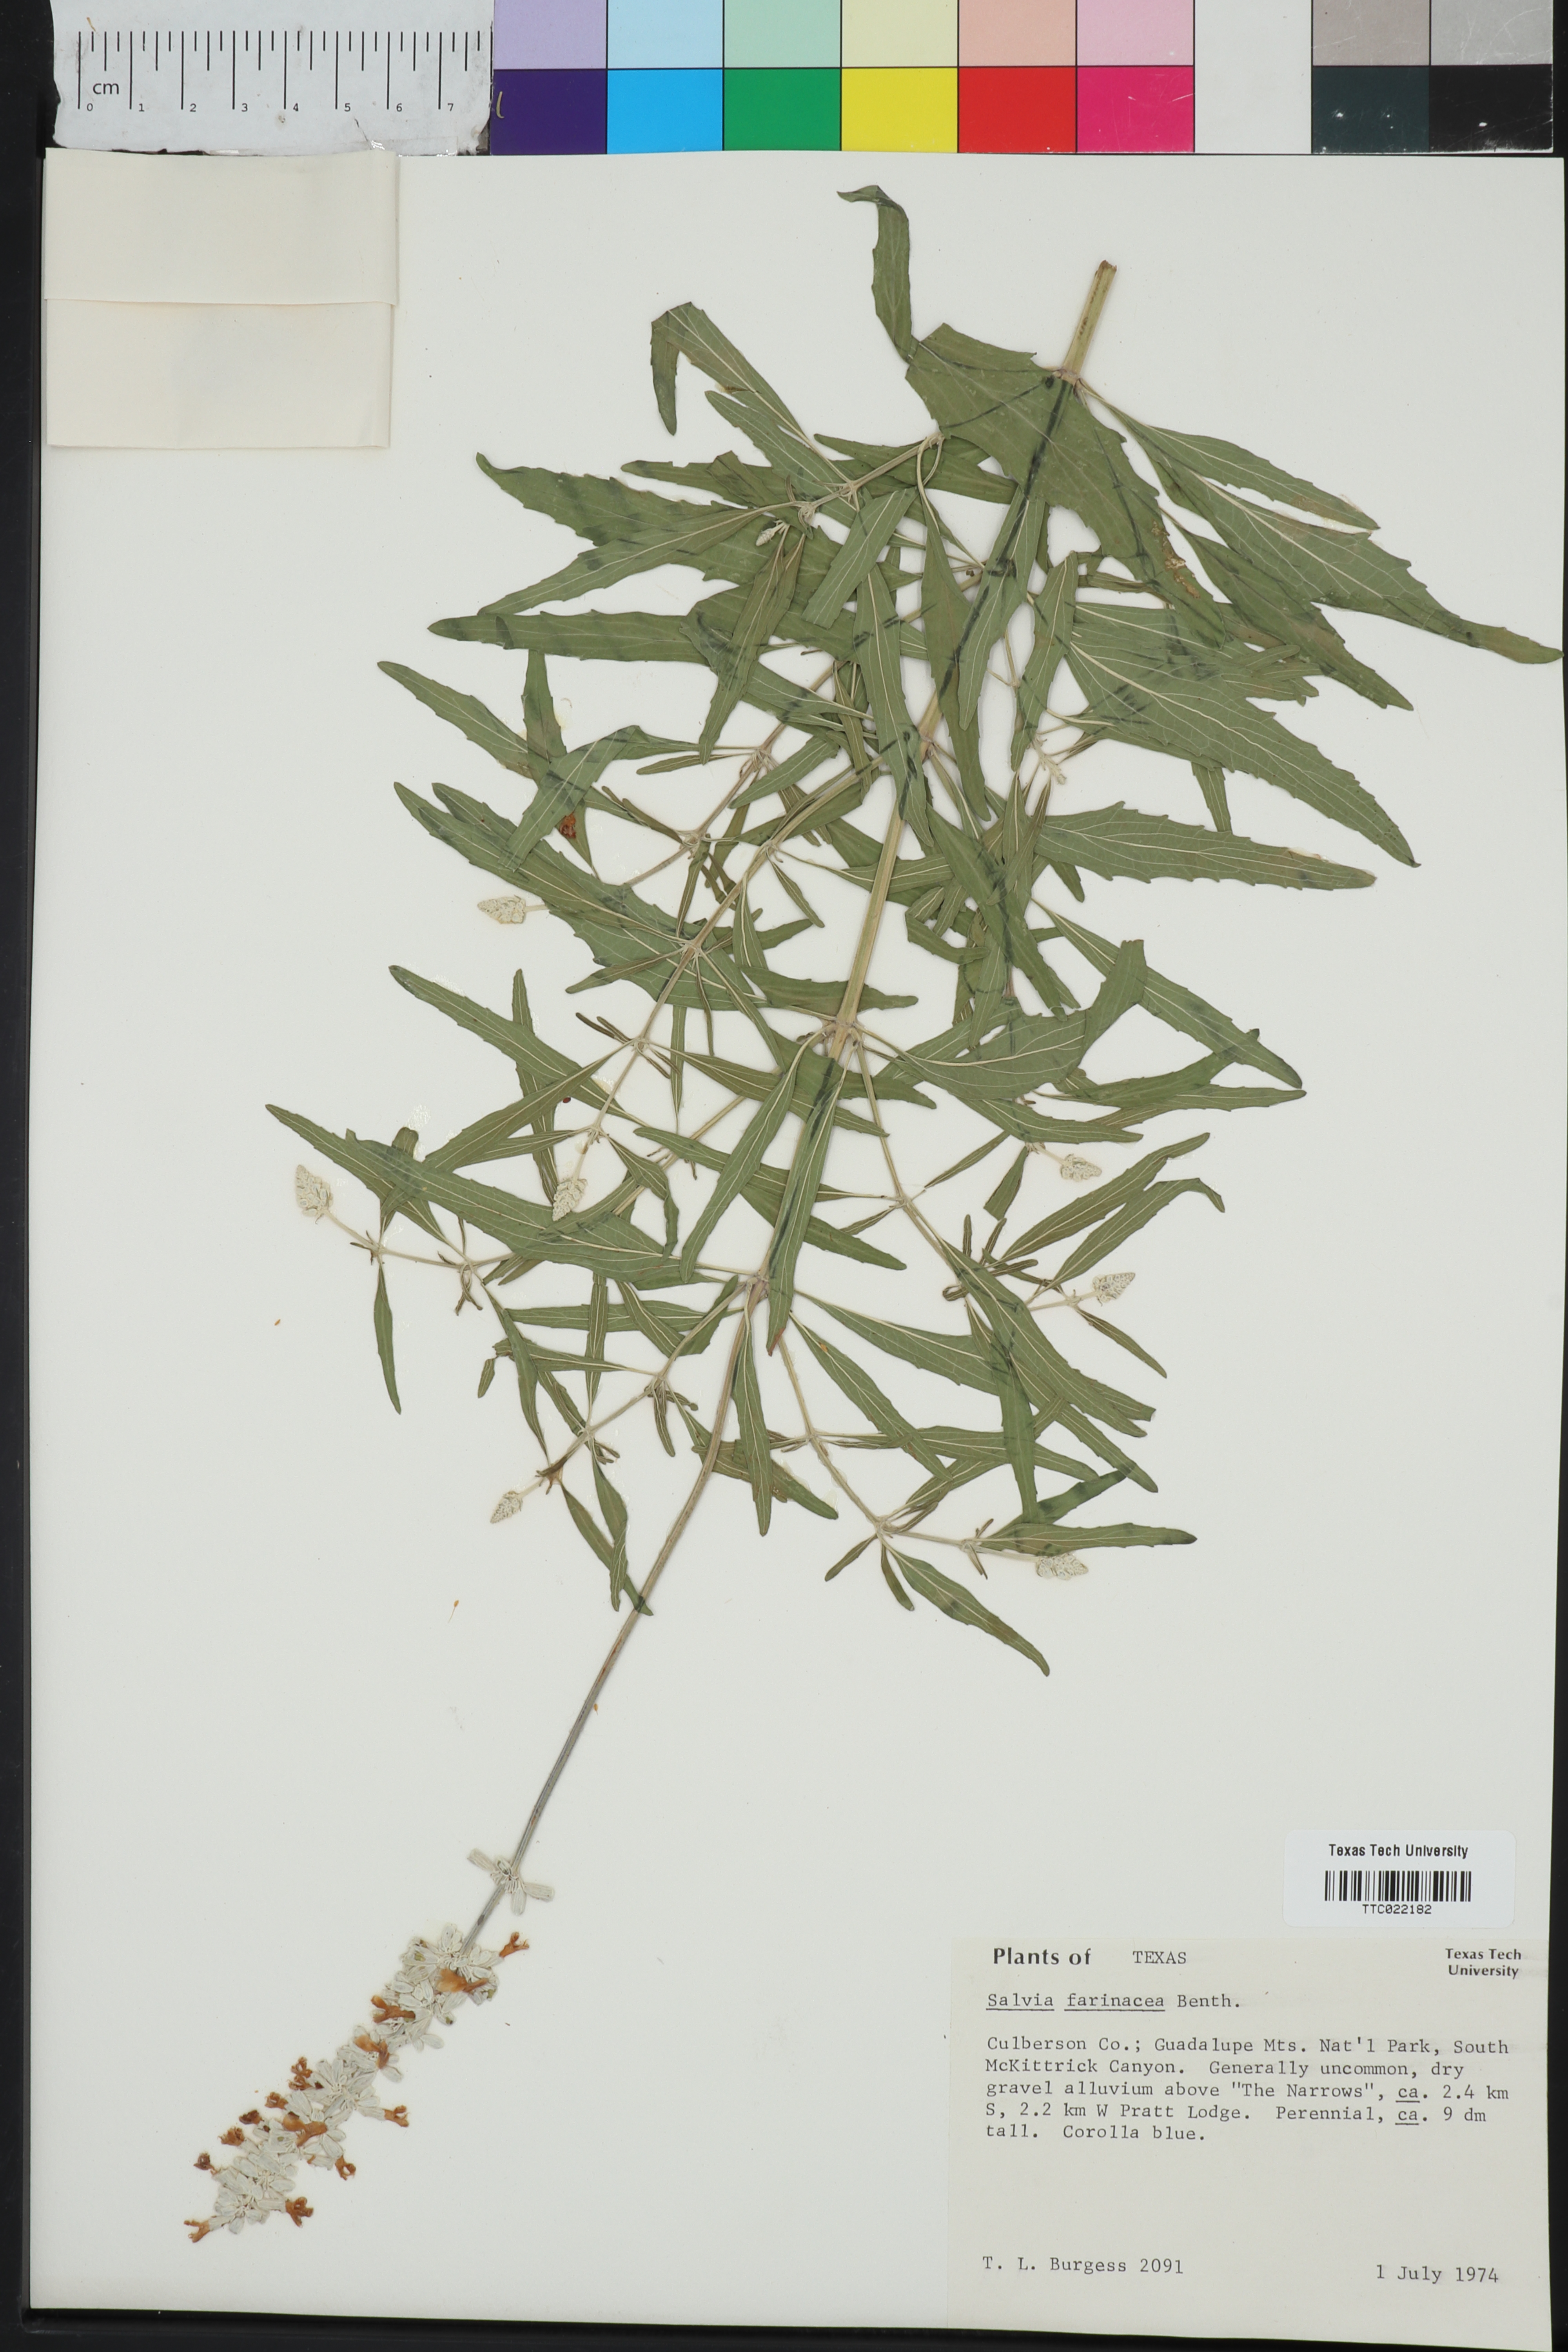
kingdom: Plantae
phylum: Tracheophyta
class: Magnoliopsida
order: Lamiales
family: Lamiaceae
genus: Salvia
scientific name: Salvia farinacea
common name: Mealy sage
